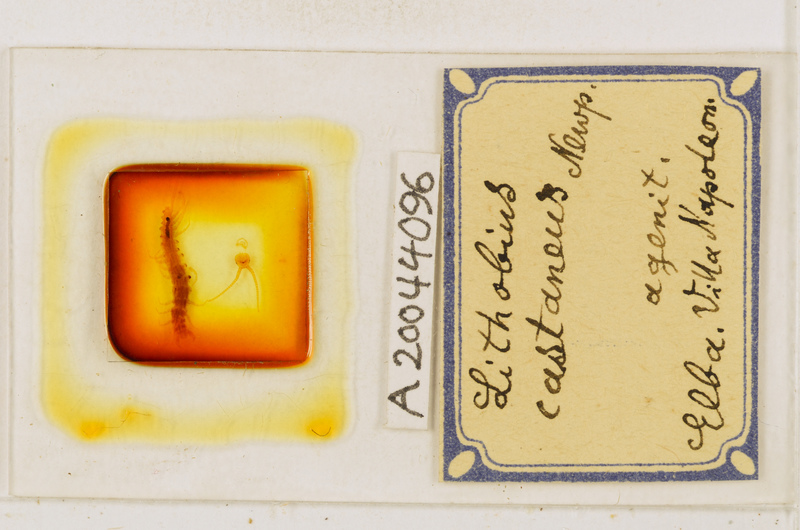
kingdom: Animalia
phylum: Arthropoda
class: Chilopoda
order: Lithobiomorpha
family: Lithobiidae
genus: Lithobius
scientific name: Lithobius castaneus
